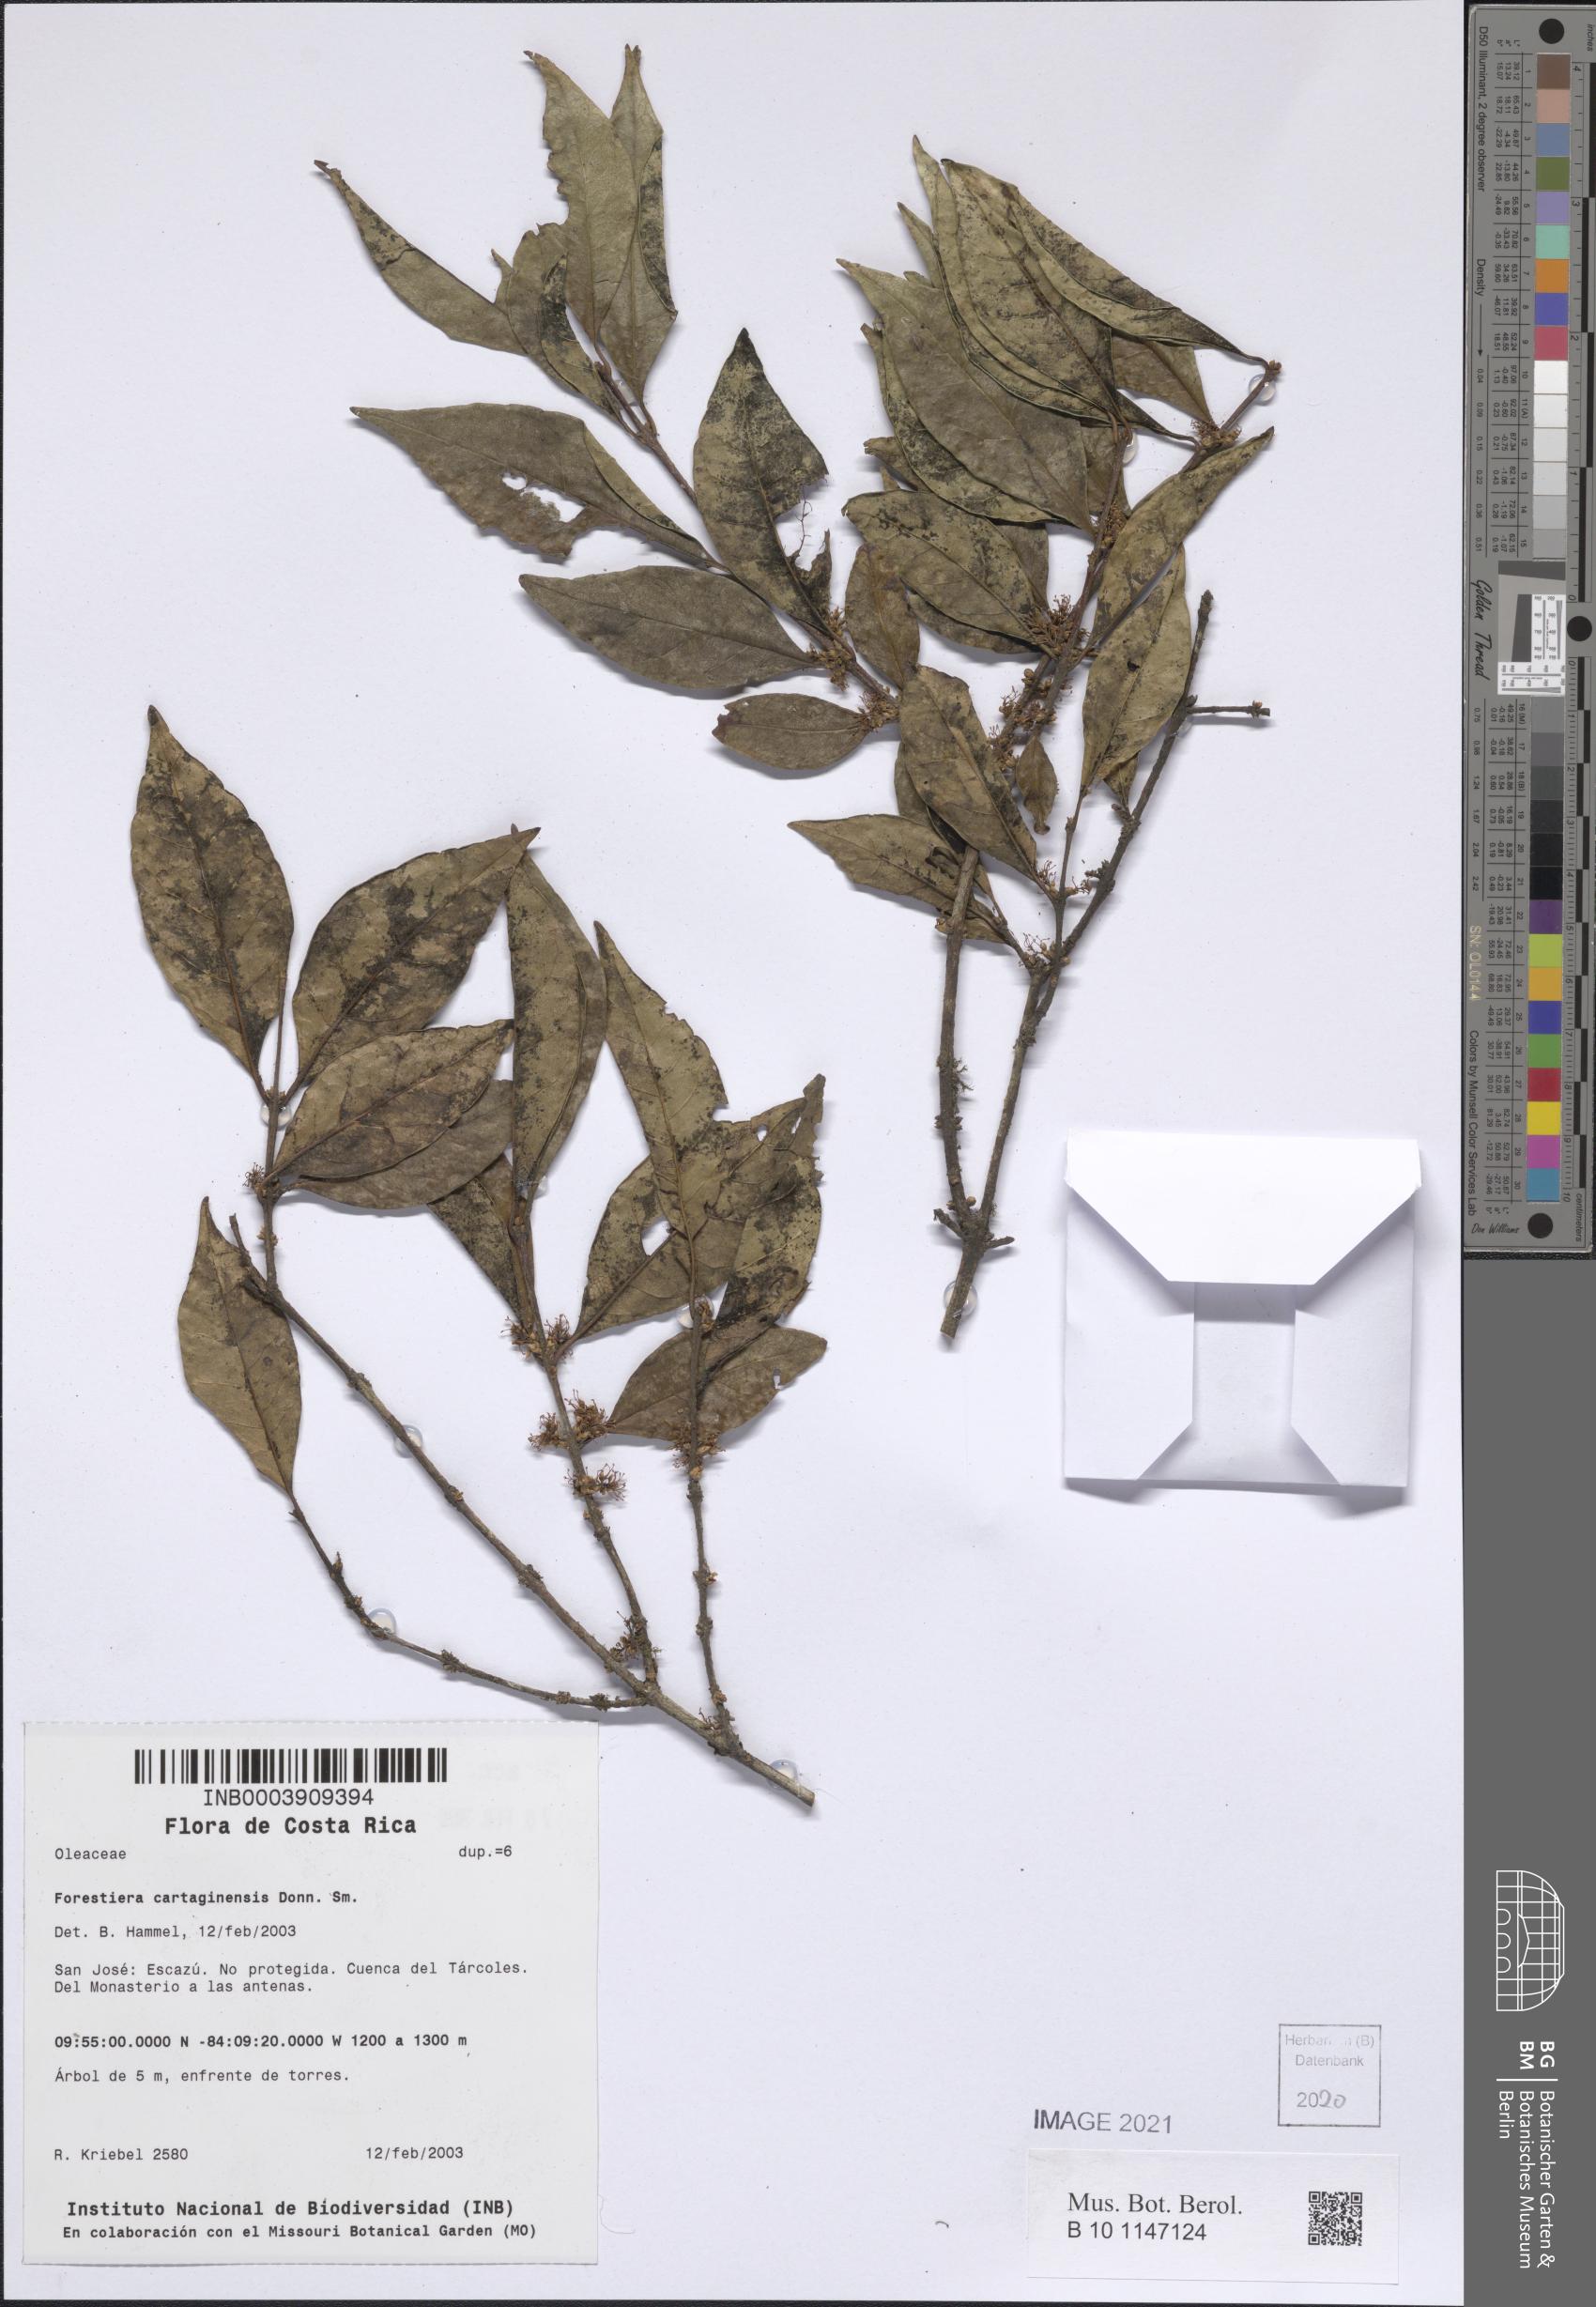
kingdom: Plantae
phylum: Tracheophyta
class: Magnoliopsida
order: Lamiales
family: Oleaceae
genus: Forestiera
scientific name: Forestiera cartaginensis
